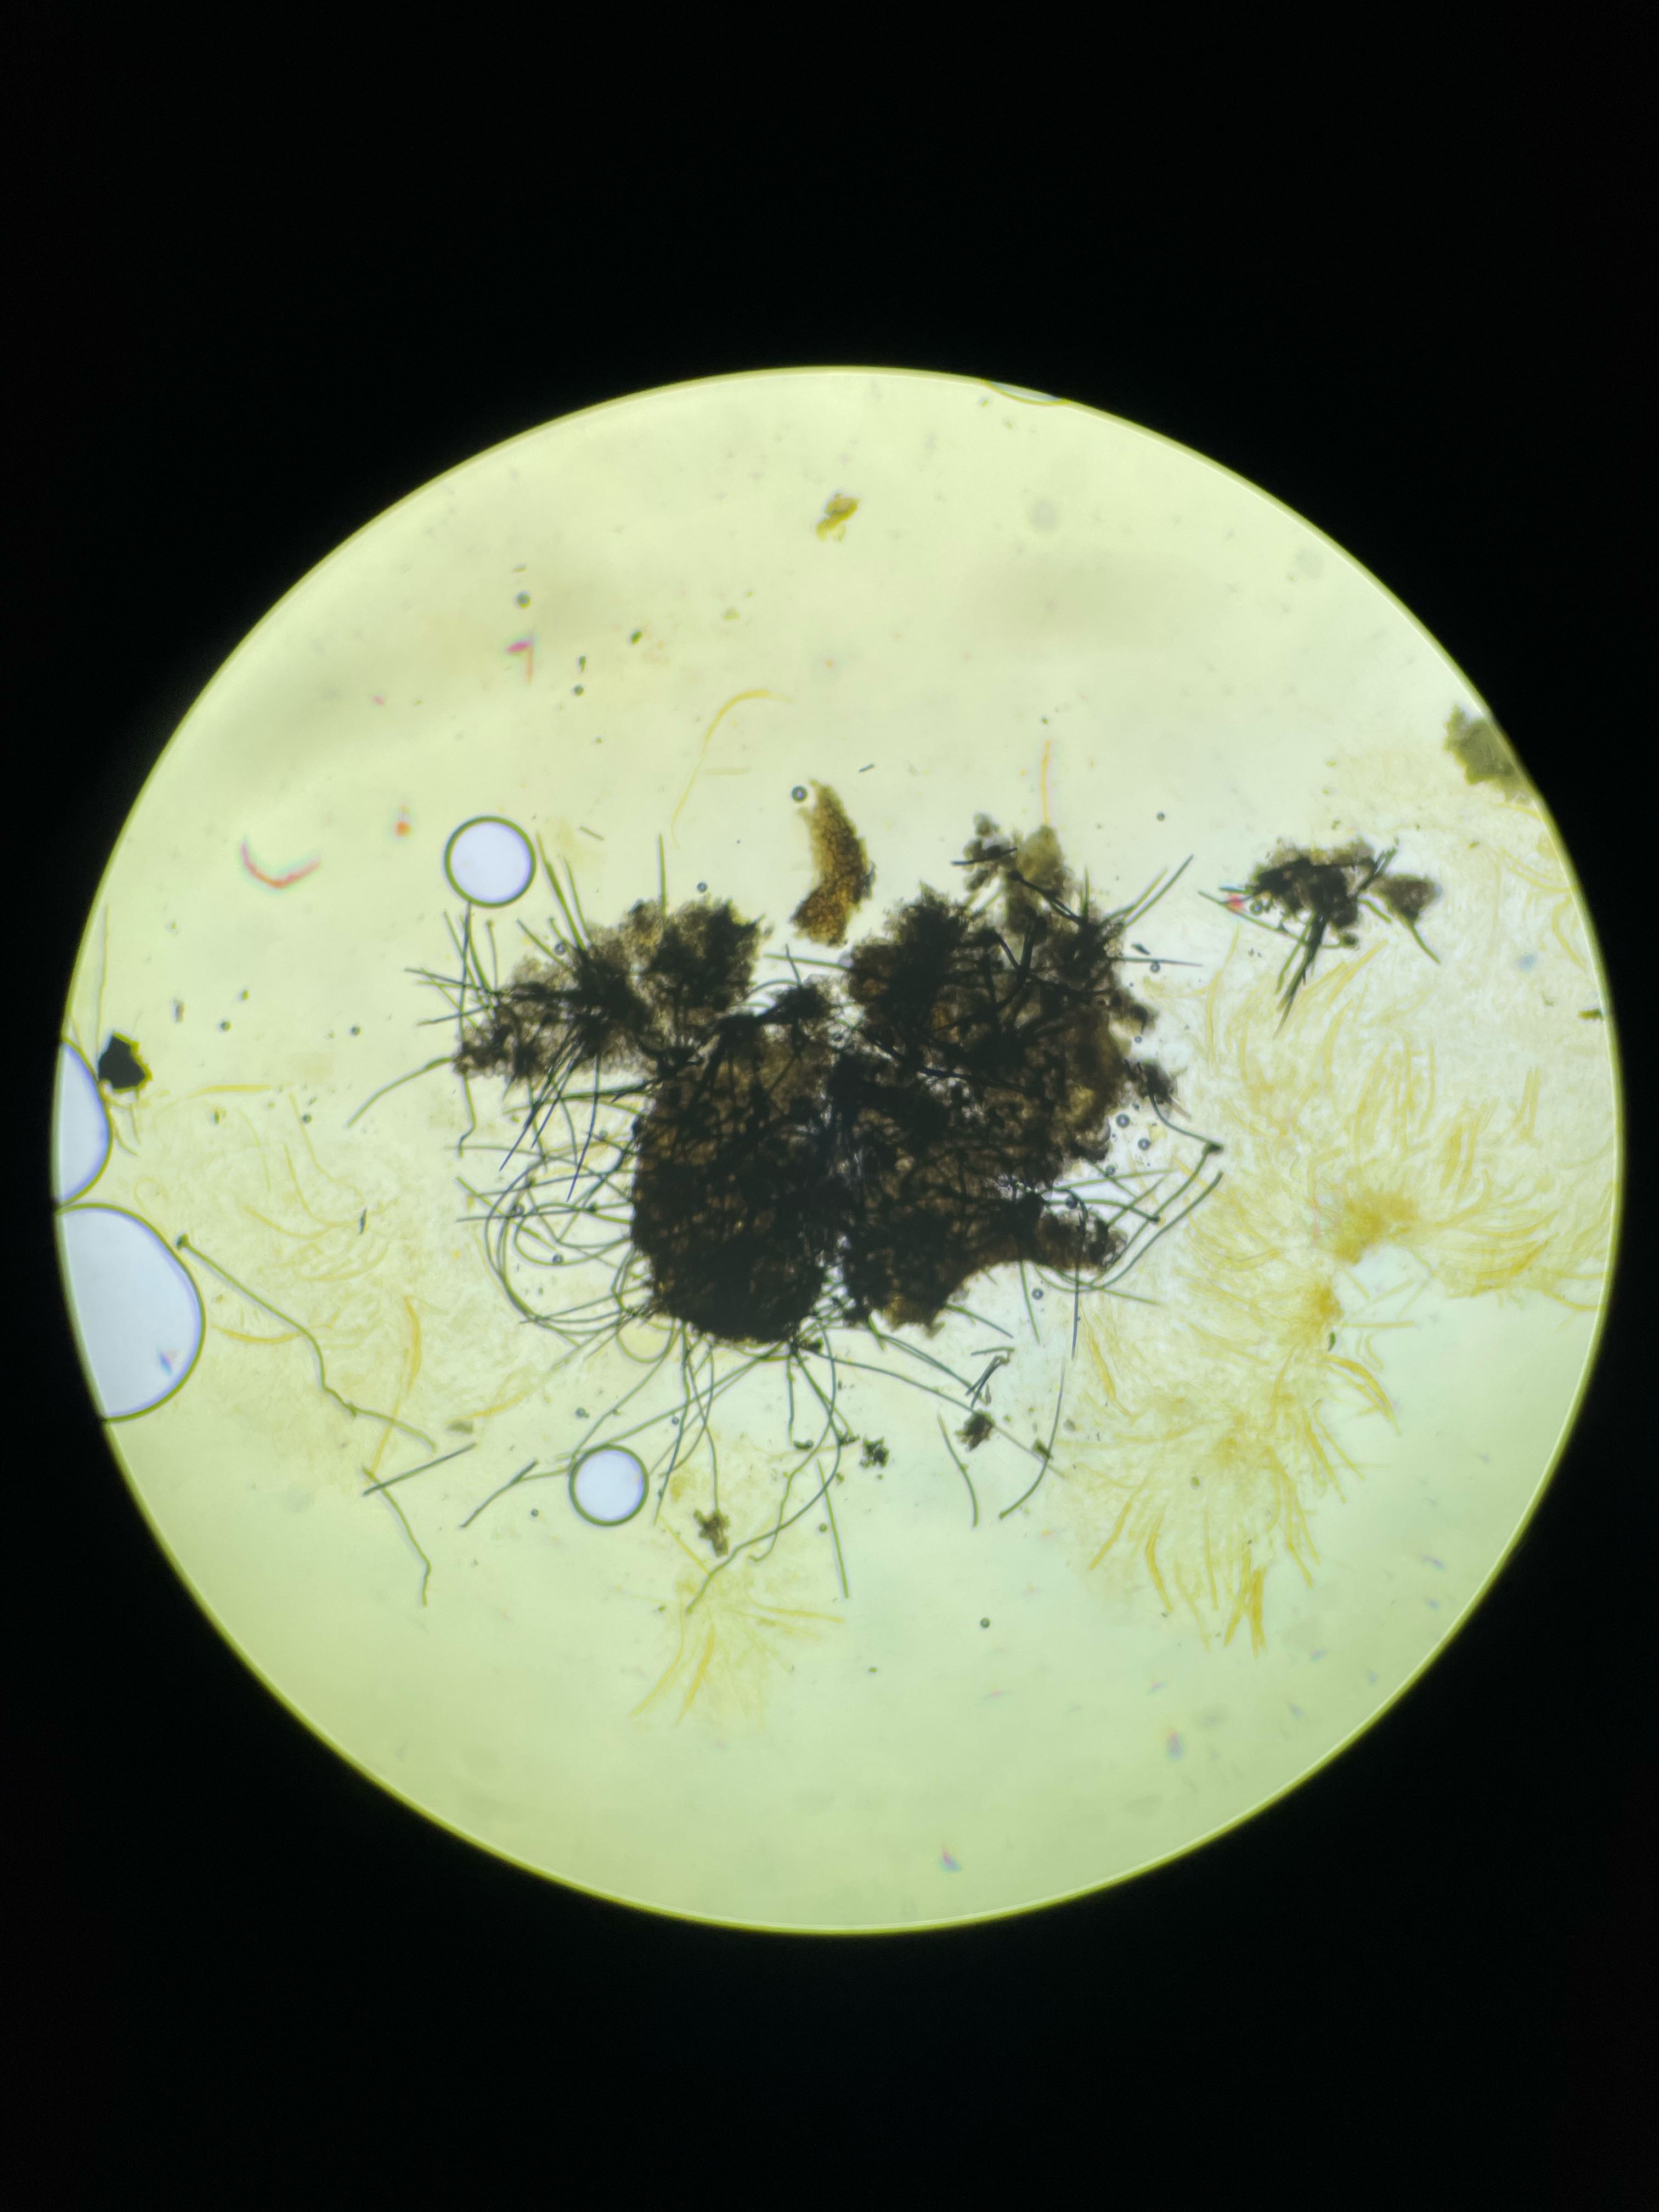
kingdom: Fungi
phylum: Ascomycota
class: Sordariomycetes
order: Sordariales
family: Lasiosphaeridaceae
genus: Lasiosphaeris
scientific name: Lasiosphaeris hirsuta
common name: sorthåret kernesvamp
